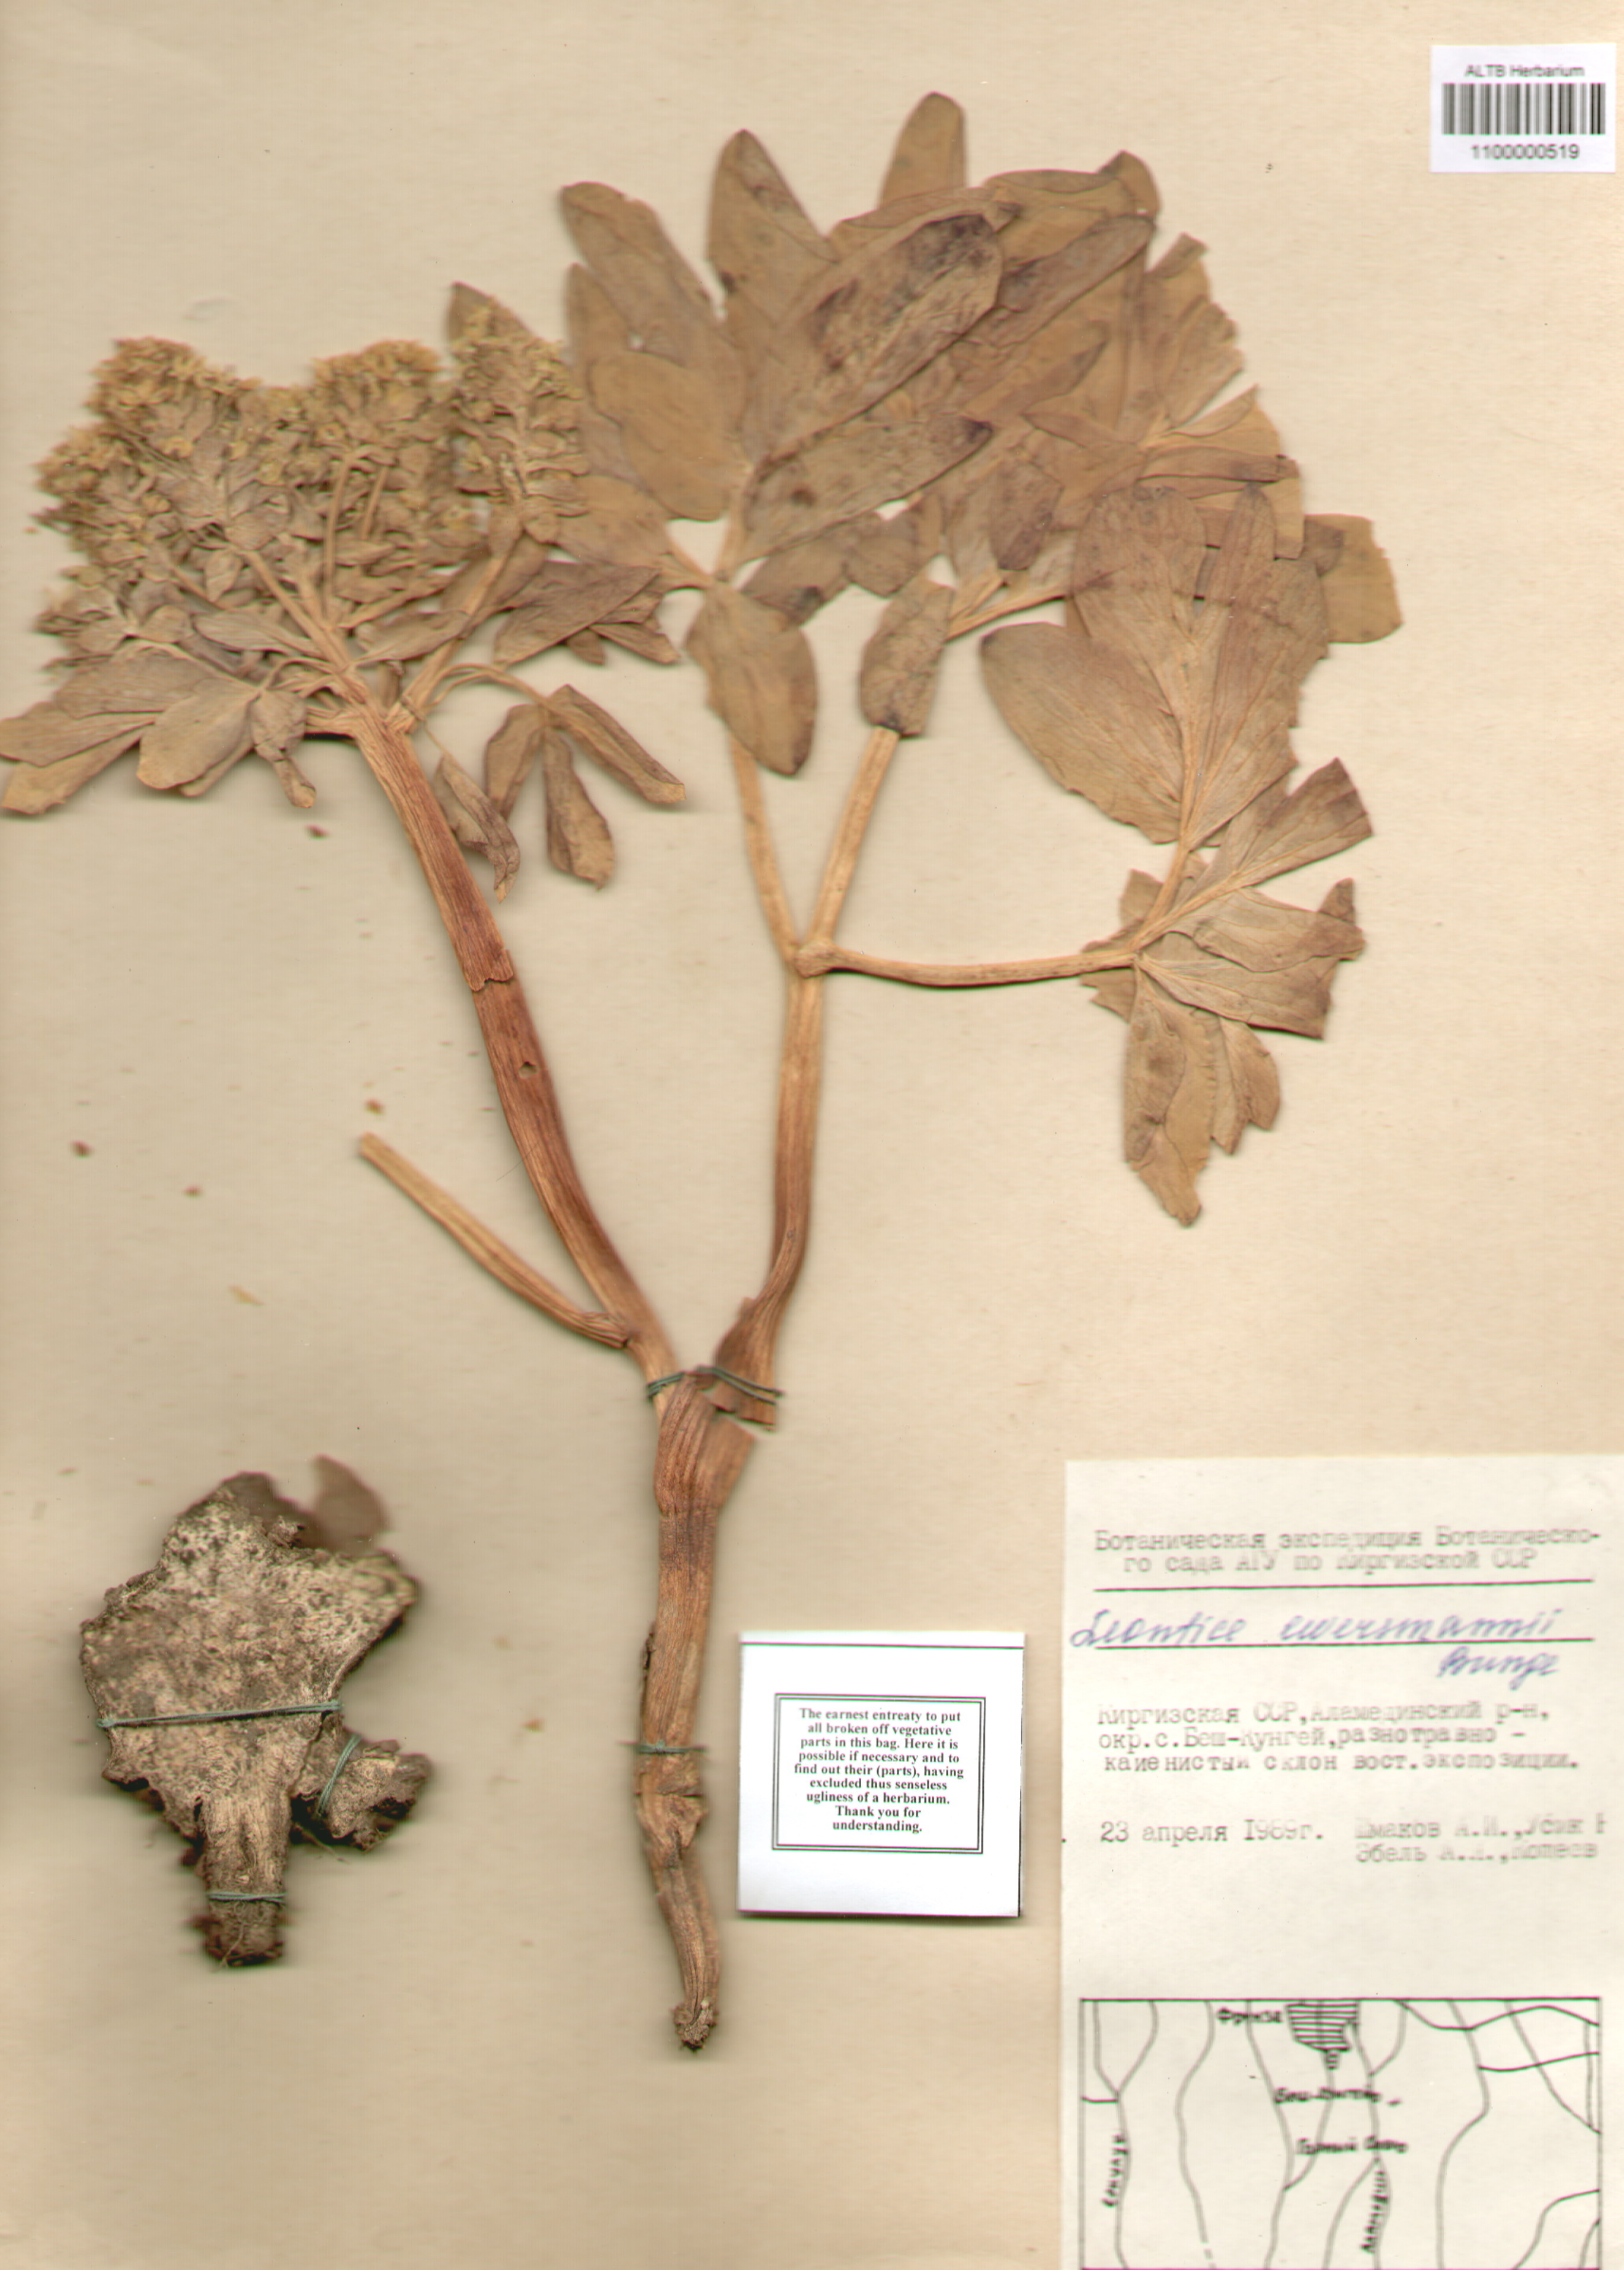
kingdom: Plantae
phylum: Tracheophyta
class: Magnoliopsida
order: Ranunculales
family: Berberidaceae
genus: Leontice
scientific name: Leontice leontopetalum
